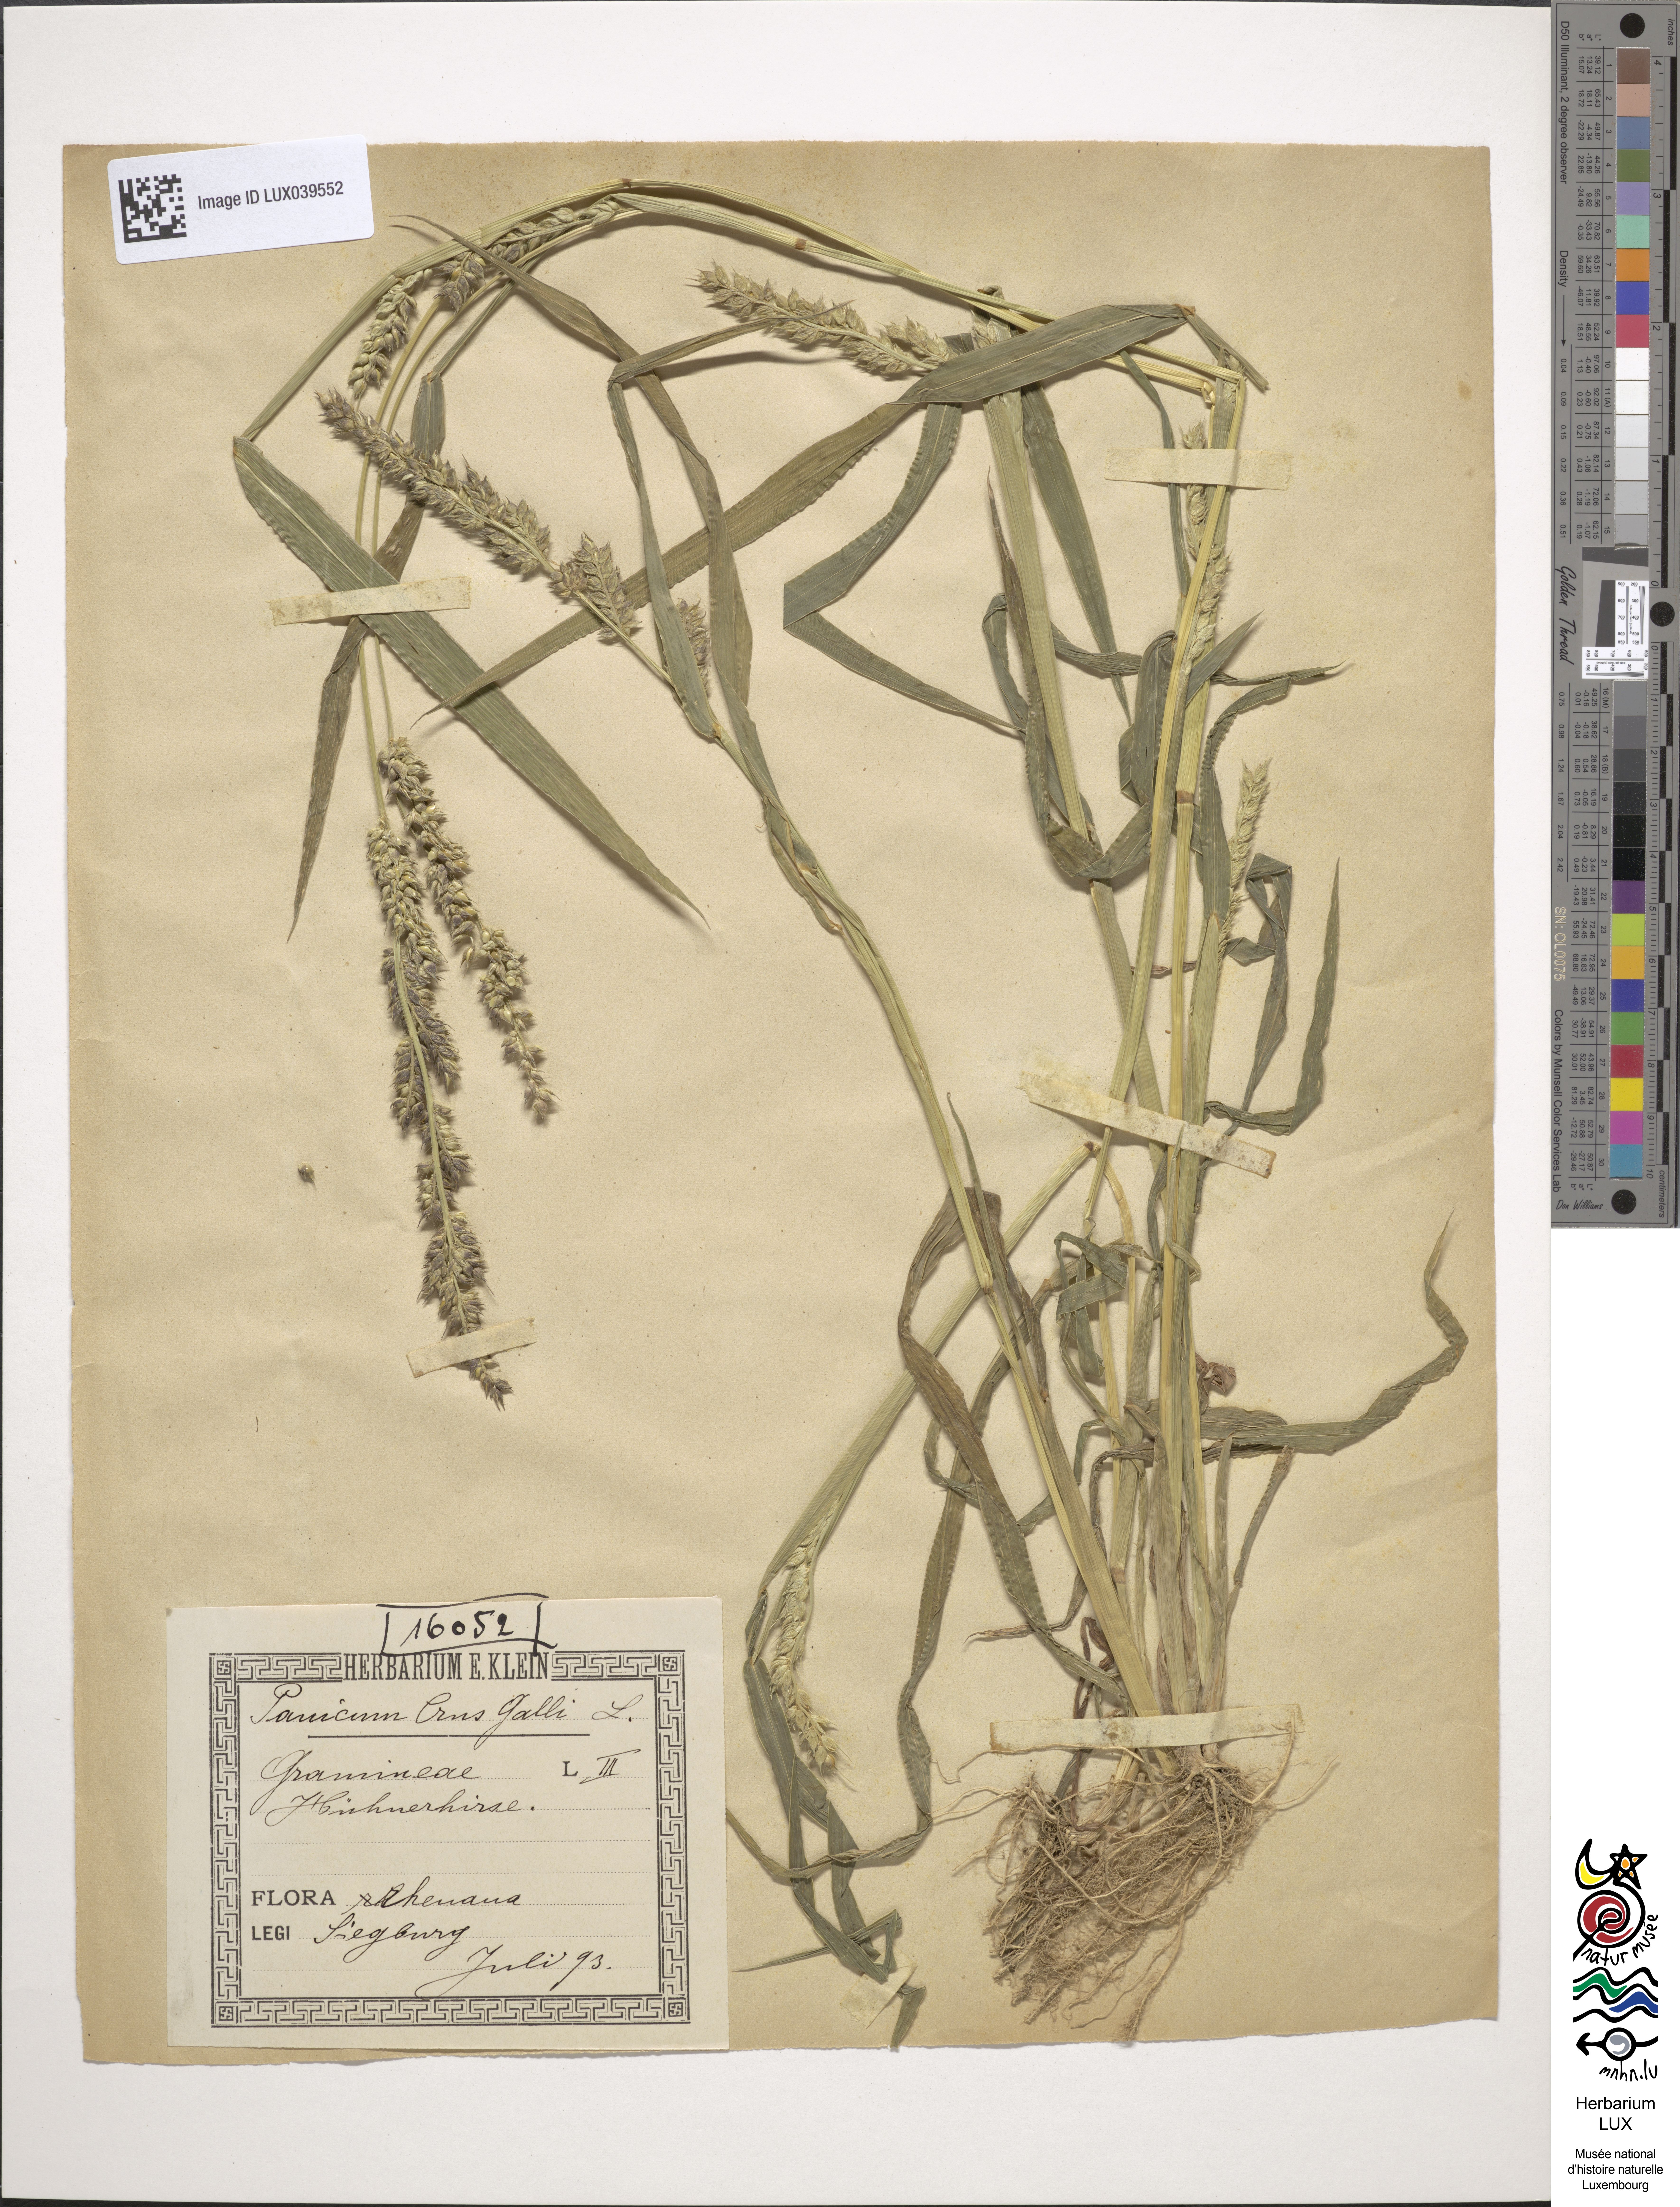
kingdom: Plantae
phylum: Tracheophyta
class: Liliopsida
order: Poales
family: Poaceae
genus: Echinochloa
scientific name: Echinochloa crus-galli
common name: Cockspur
